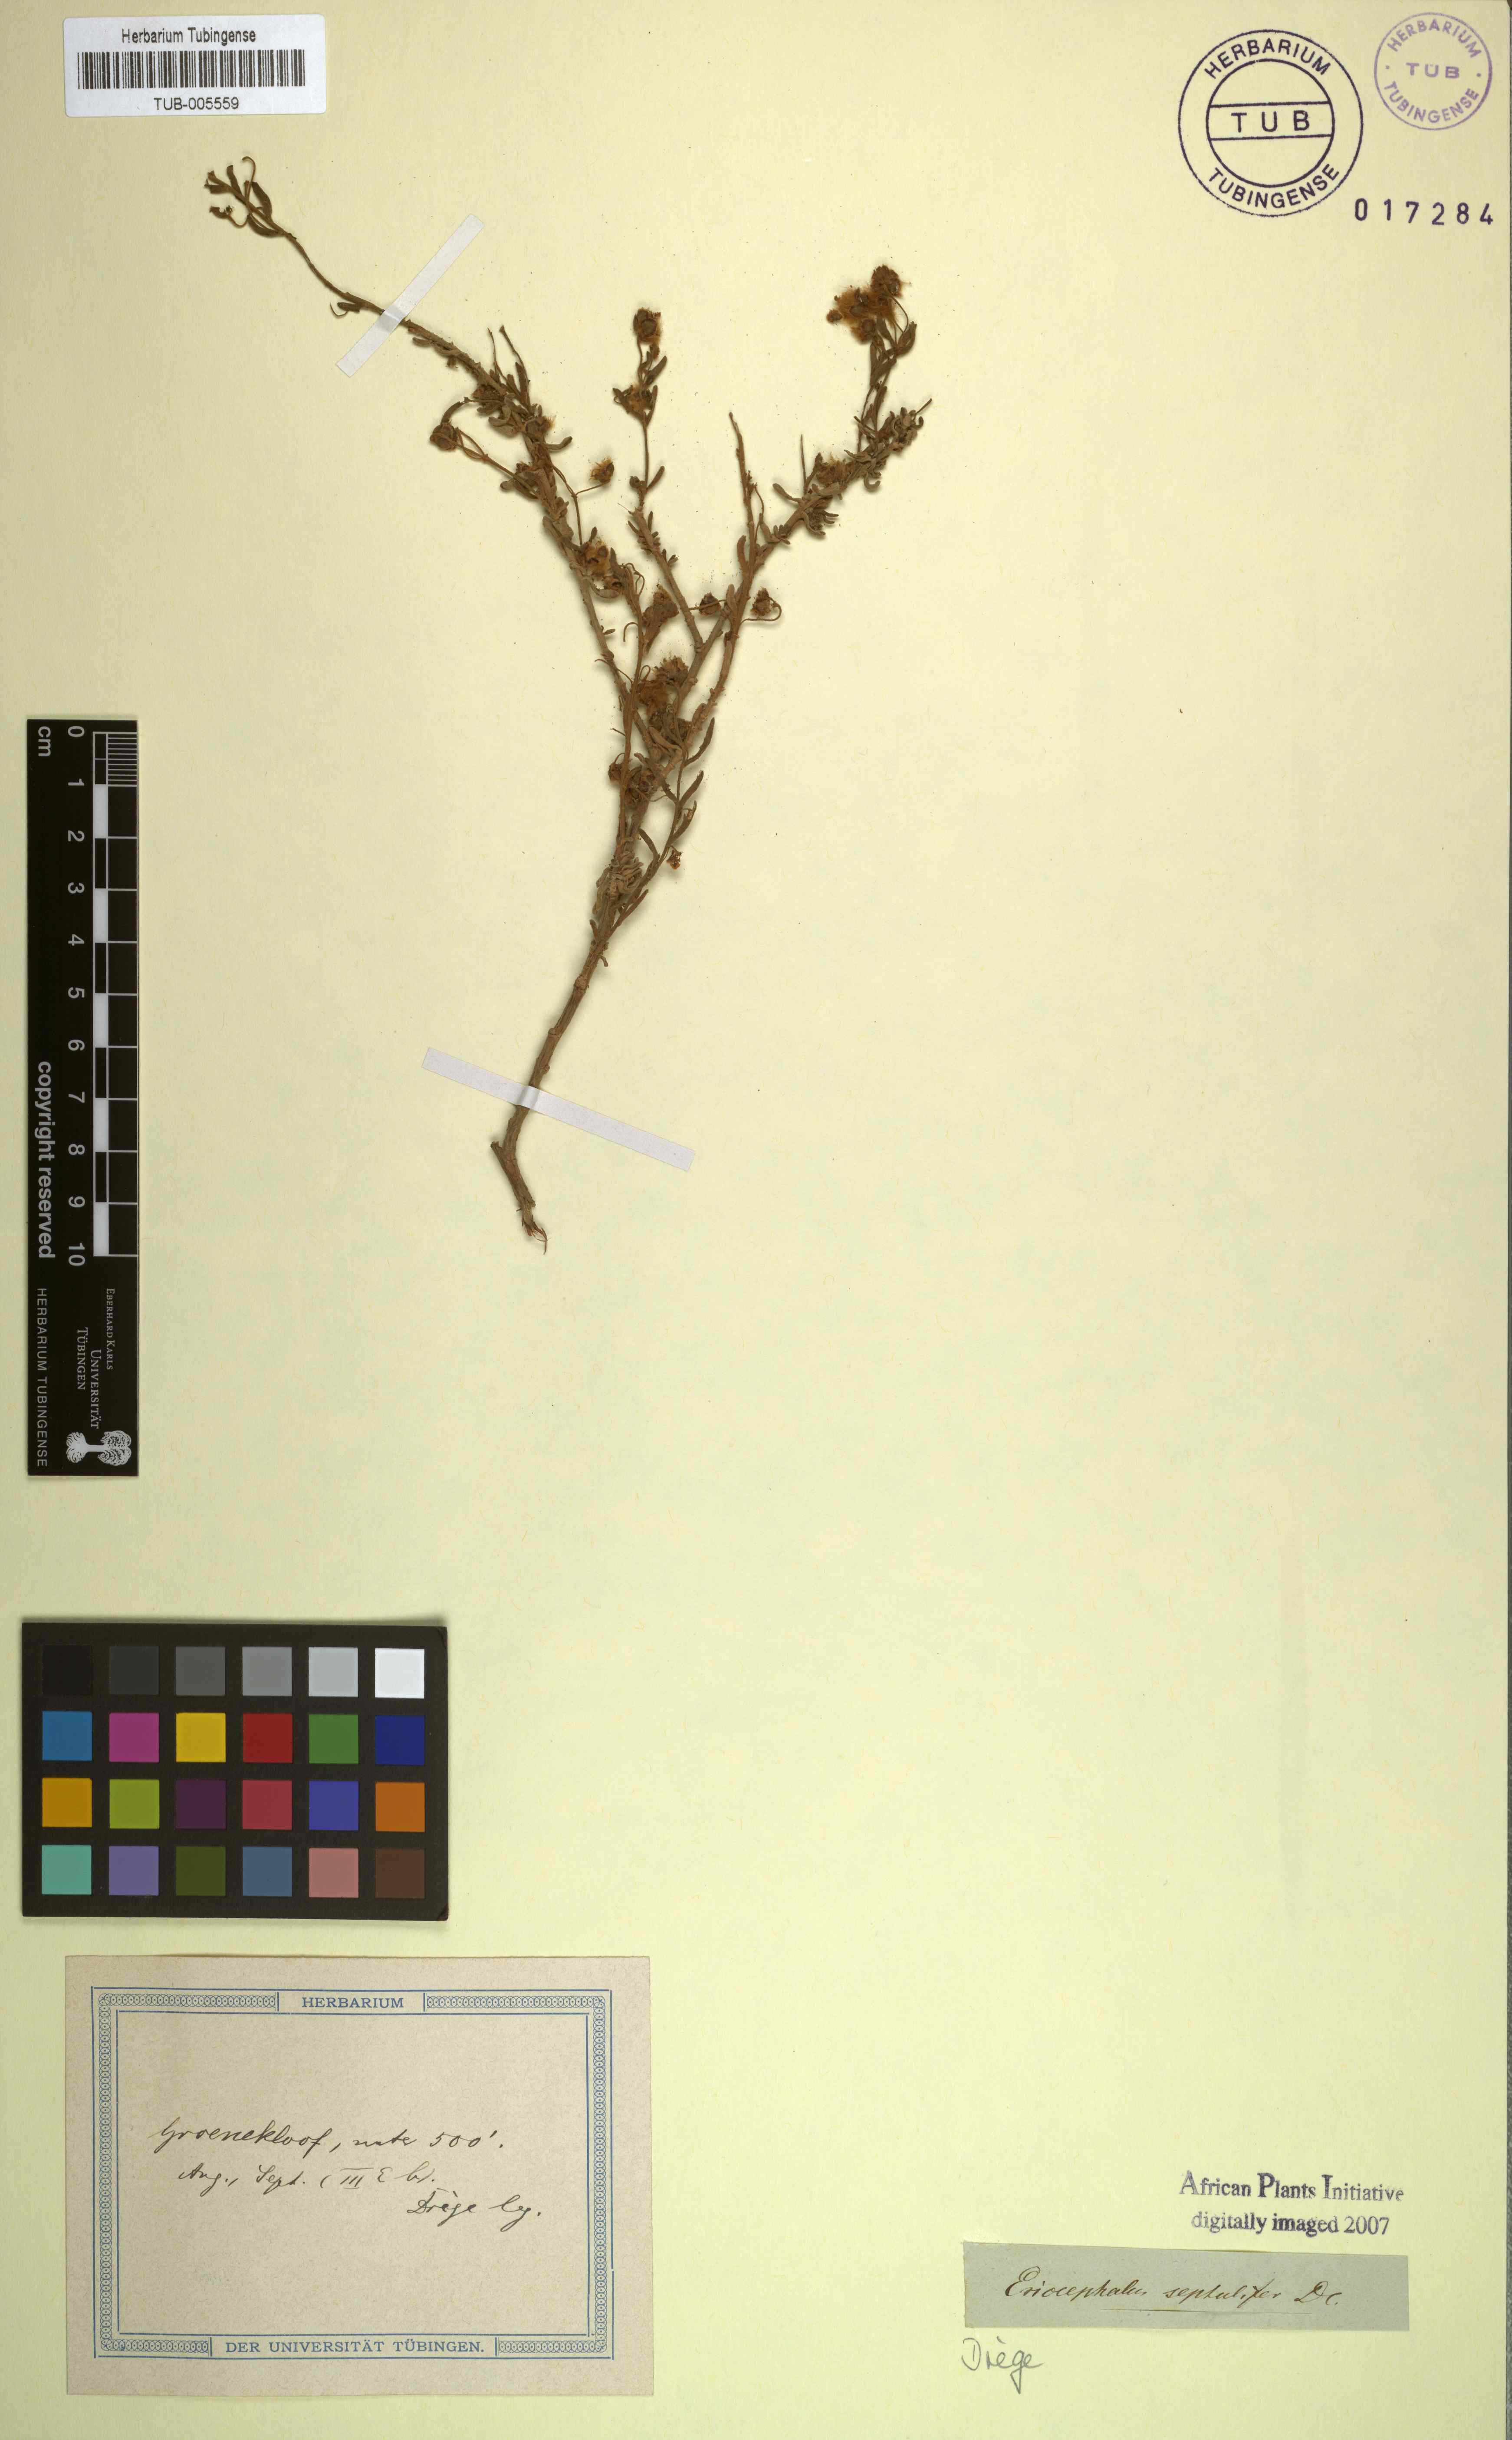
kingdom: Plantae
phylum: Tracheophyta
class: Magnoliopsida
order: Asterales
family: Asteraceae
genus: Eriocephalus
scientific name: Eriocephalus africanus
